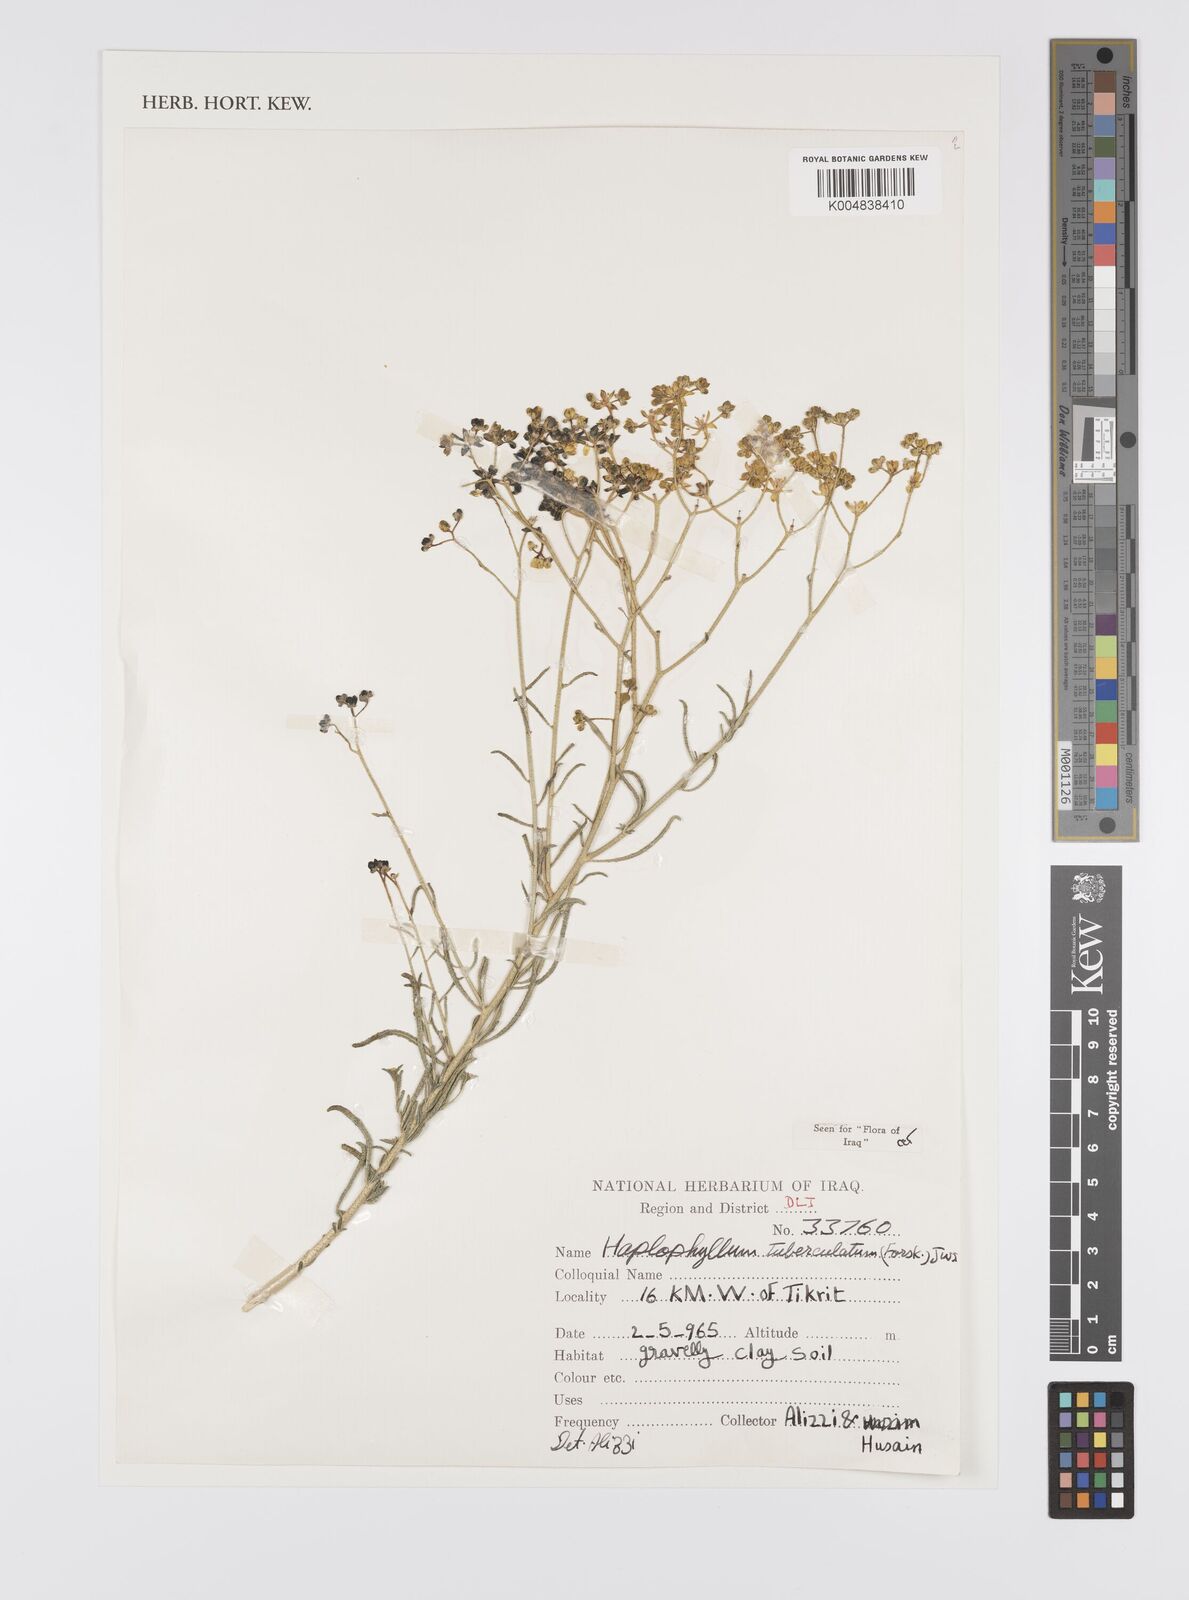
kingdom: Plantae
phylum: Tracheophyta
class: Magnoliopsida
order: Sapindales
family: Rutaceae
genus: Haplophyllum
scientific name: Haplophyllum tuberculatum
